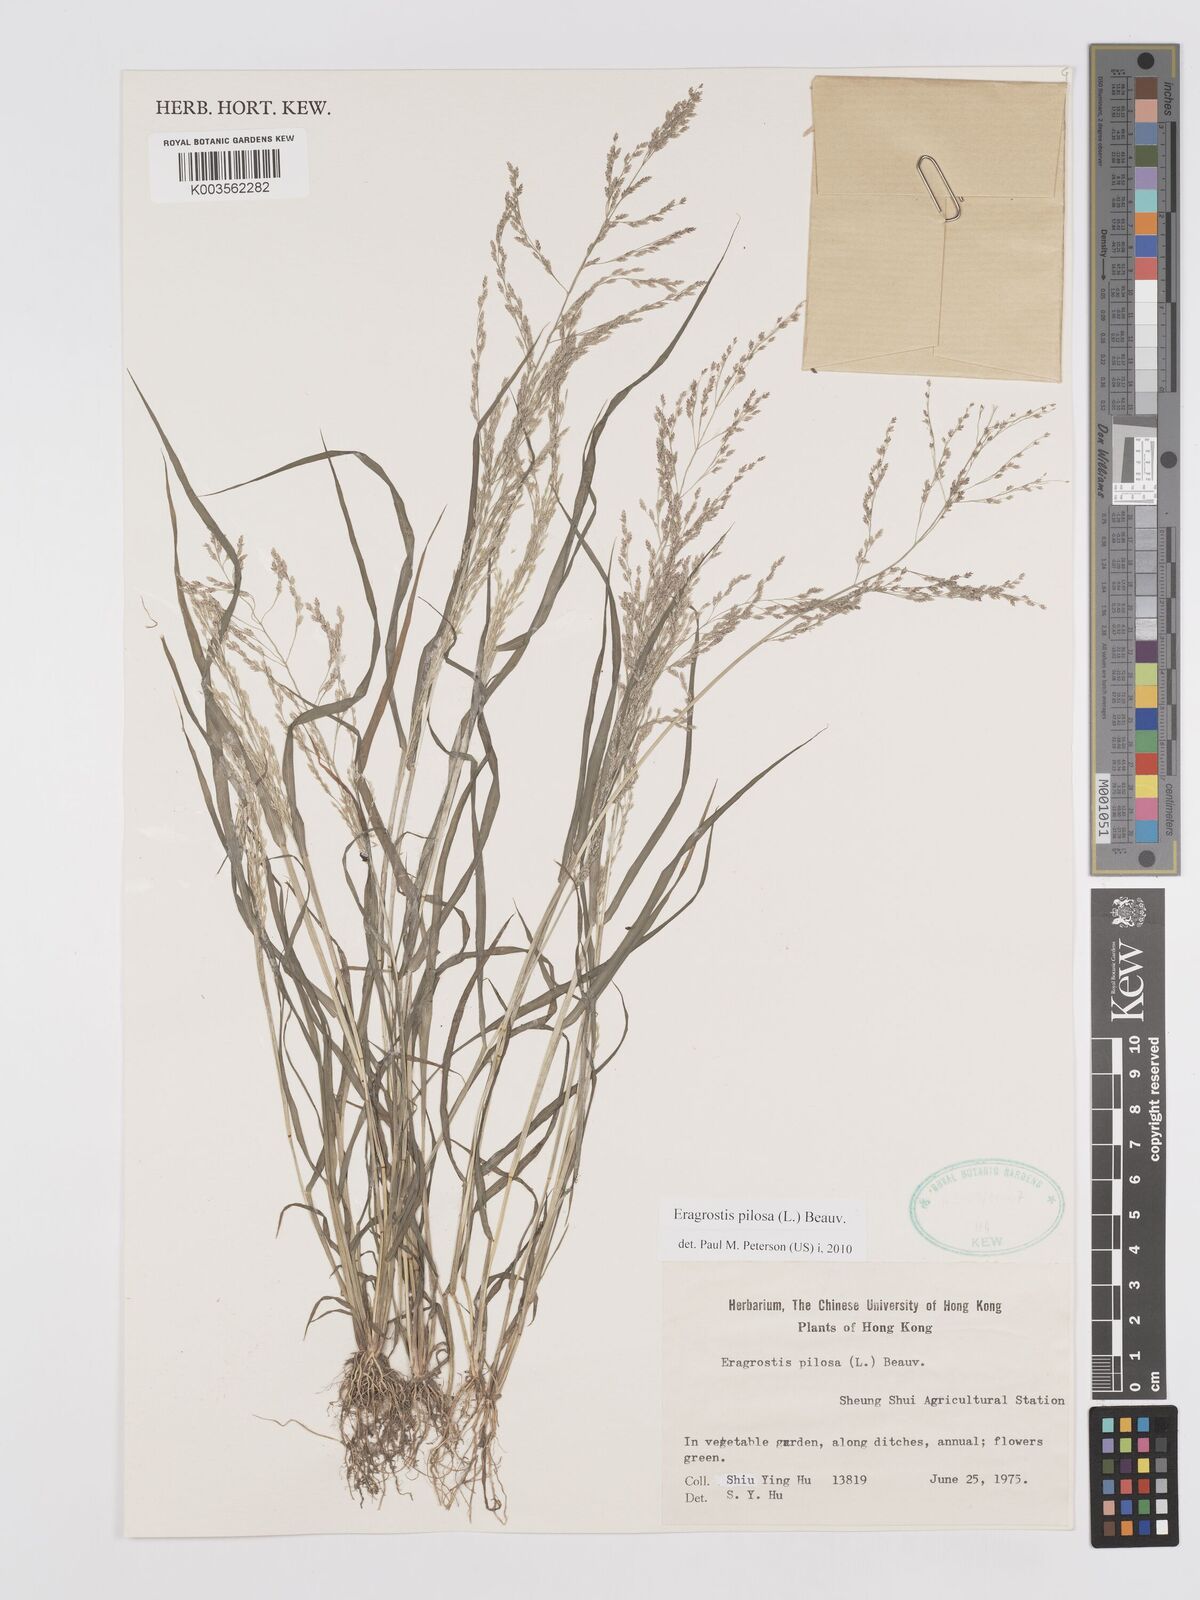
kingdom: Plantae
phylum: Tracheophyta
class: Liliopsida
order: Poales
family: Poaceae
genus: Eragrostis
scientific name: Eragrostis pilosa
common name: Indian lovegrass
